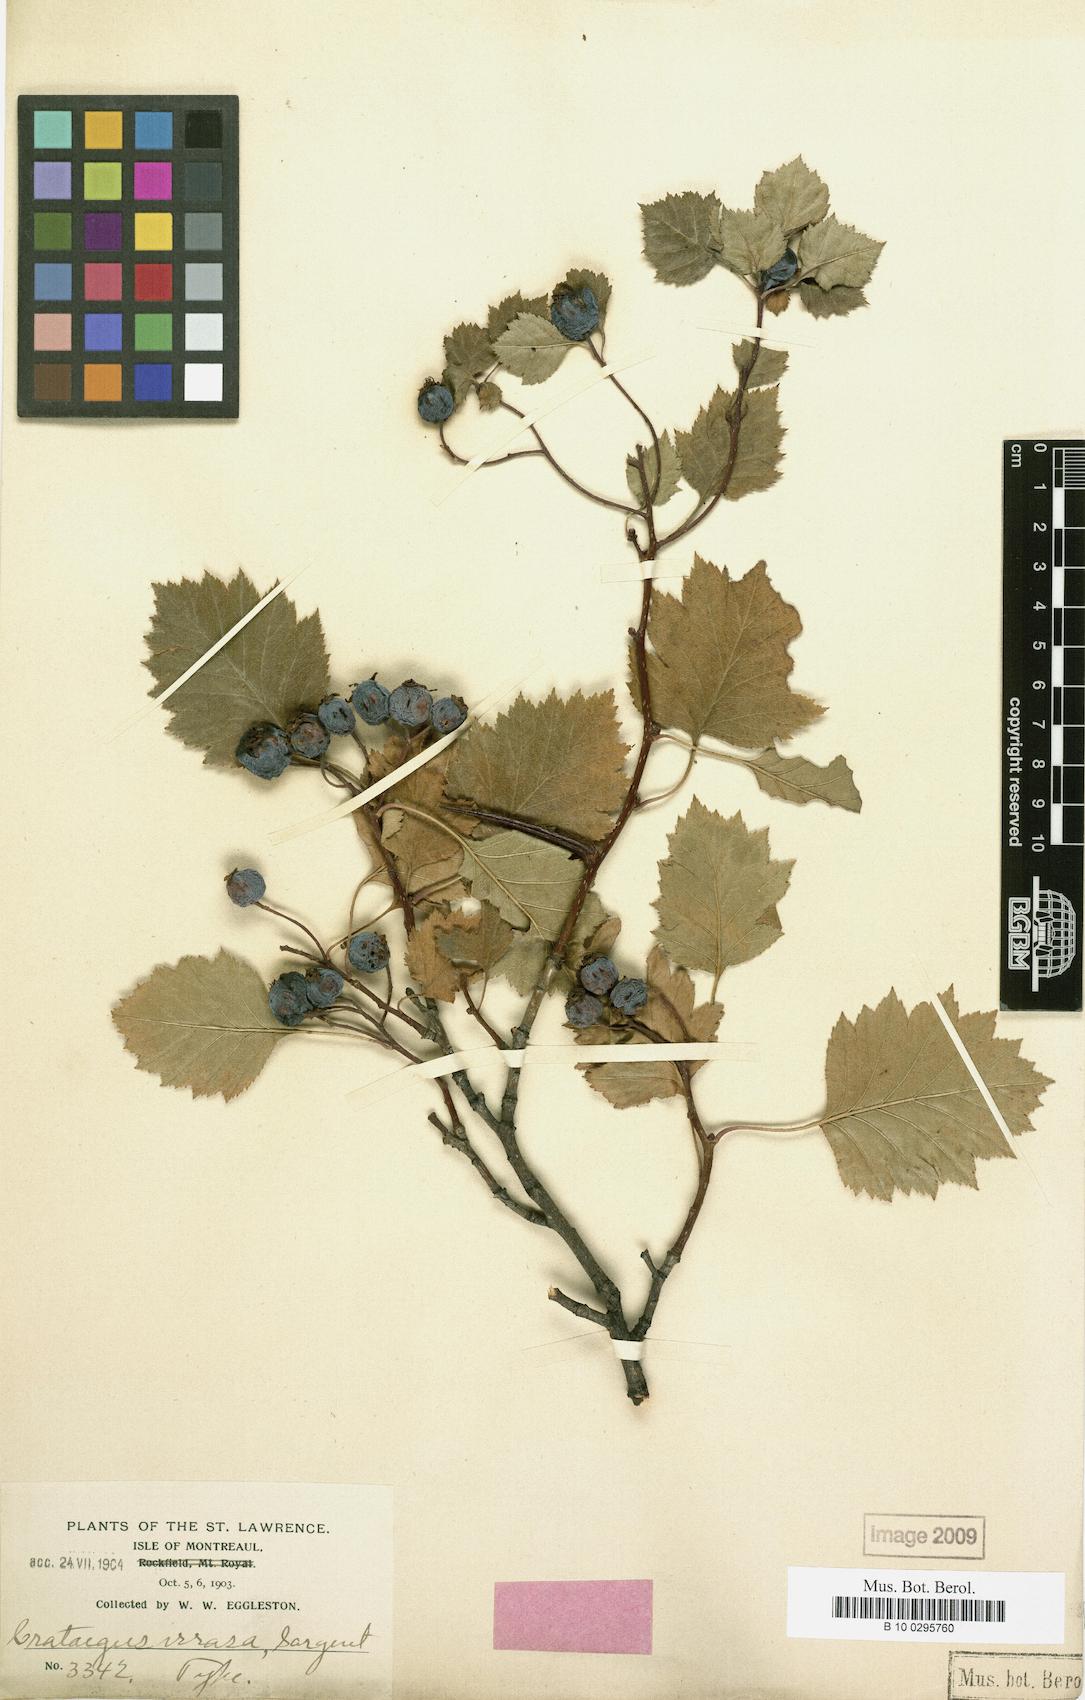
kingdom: Plantae
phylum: Tracheophyta
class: Magnoliopsida
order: Rosales
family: Rosaceae
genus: Crataegus
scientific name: Crataegus irrasa
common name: Unshorn hawthorn
